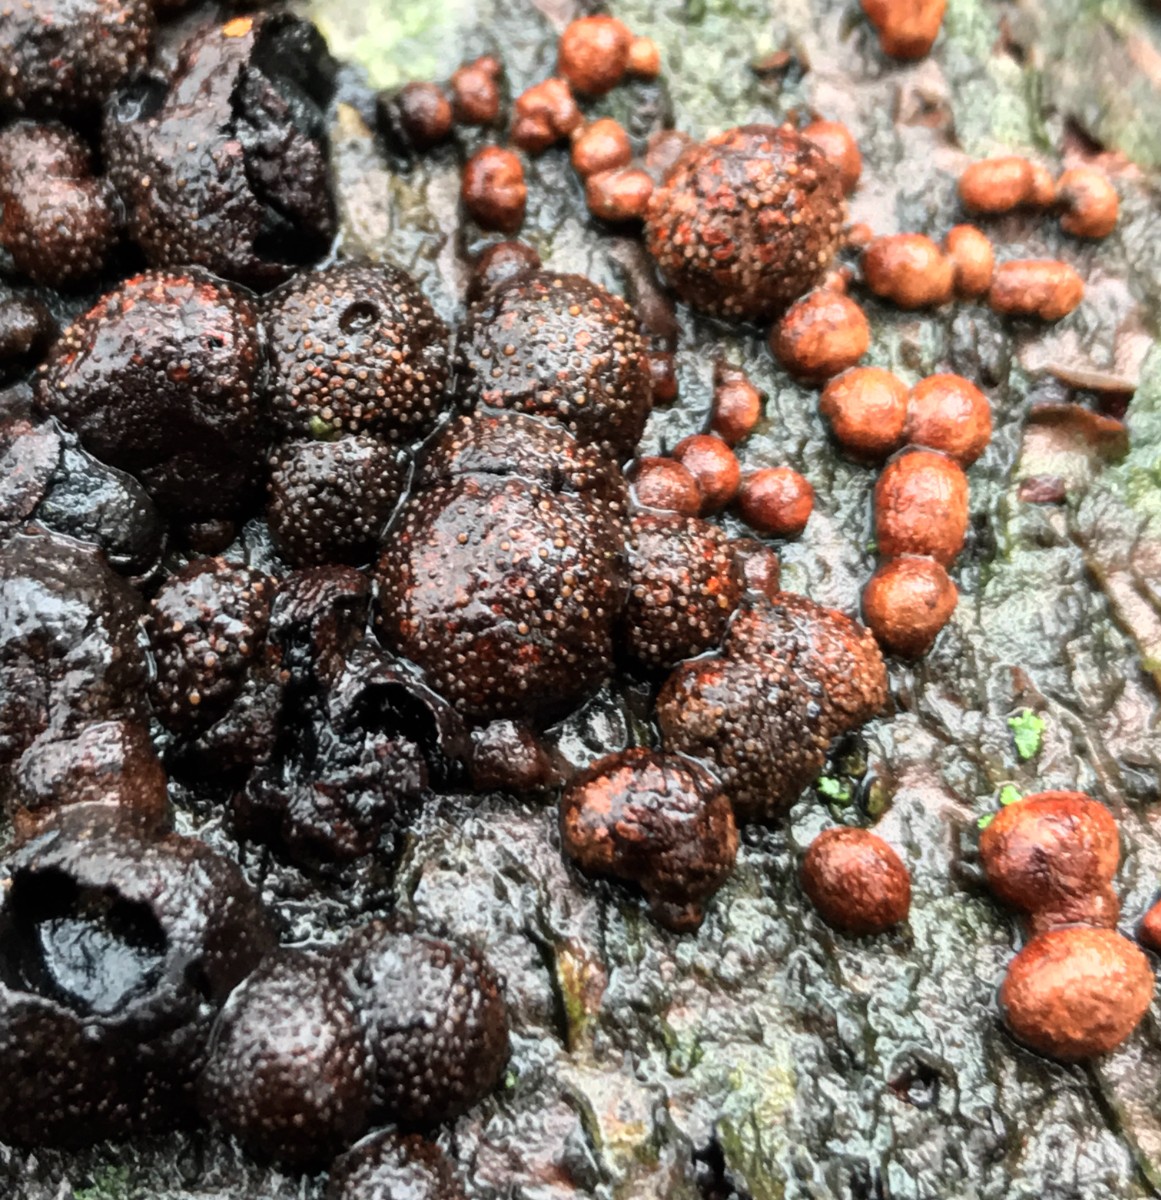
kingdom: Fungi
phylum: Ascomycota
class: Sordariomycetes
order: Xylariales
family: Hypoxylaceae
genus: Hypoxylon
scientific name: Hypoxylon fragiforme
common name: kuljordbær
